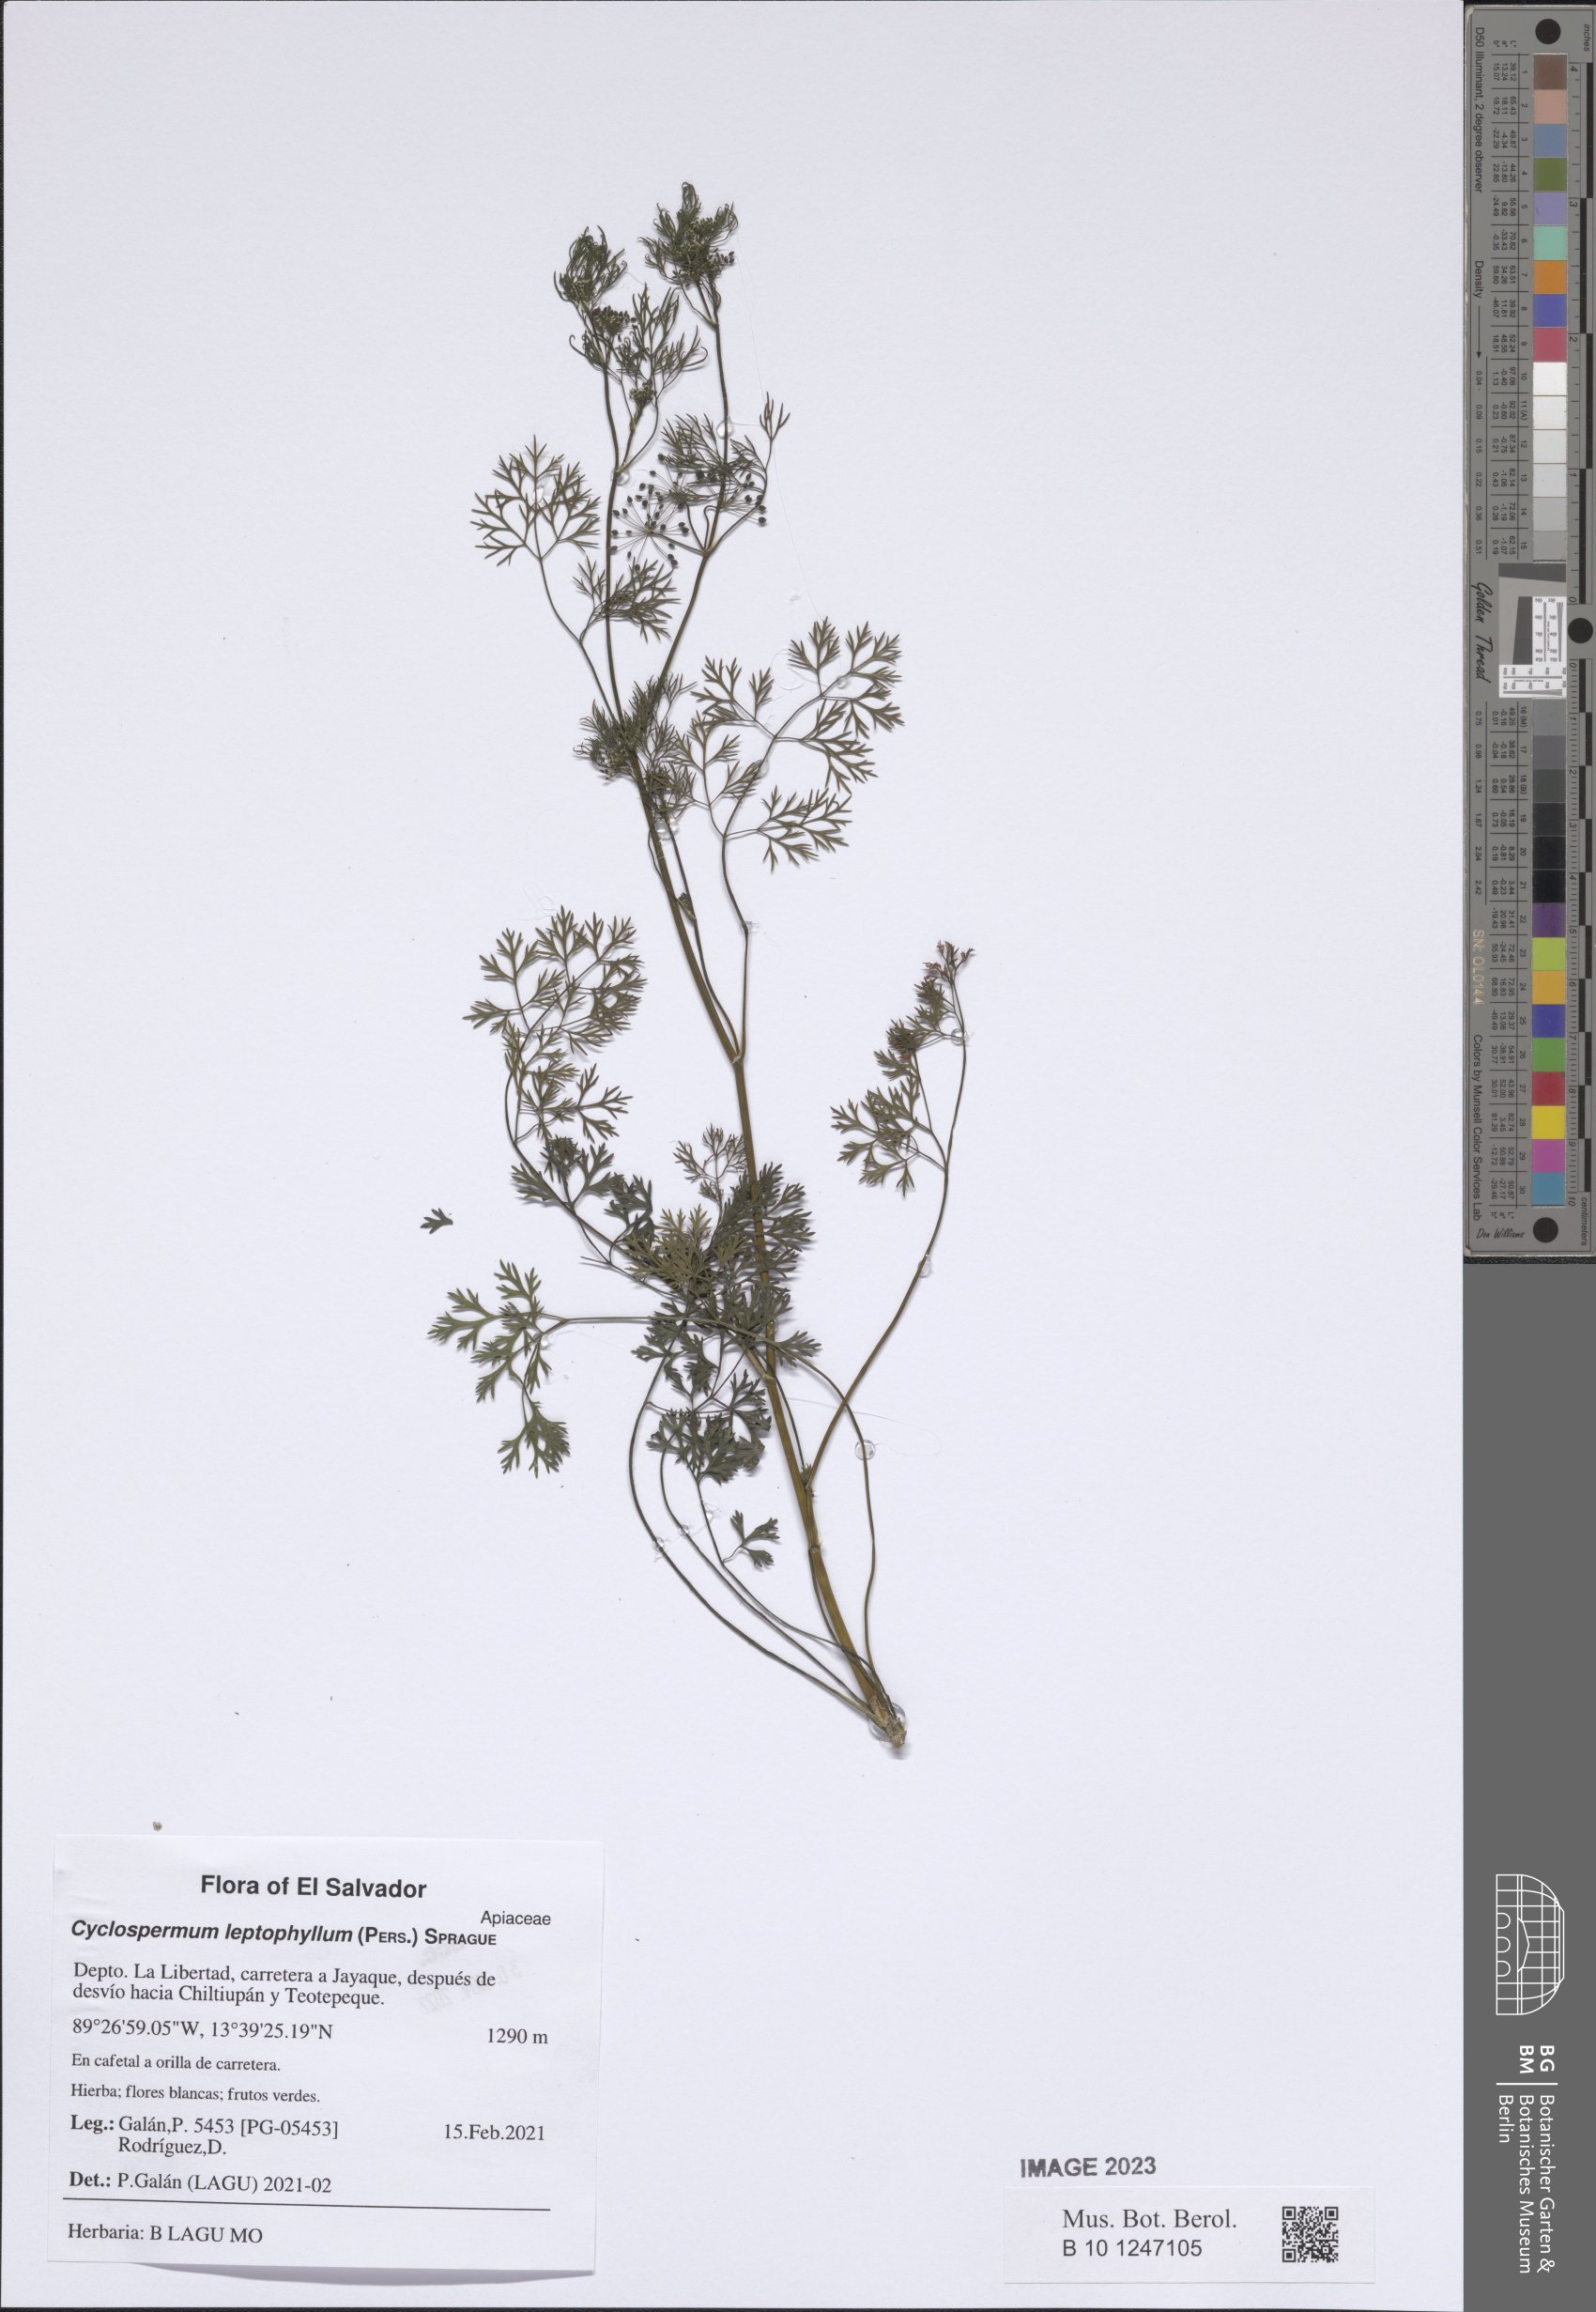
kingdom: Plantae
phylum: Tracheophyta
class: Magnoliopsida
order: Apiales
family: Apiaceae
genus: Cyclospermum
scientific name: Cyclospermum leptophyllum
